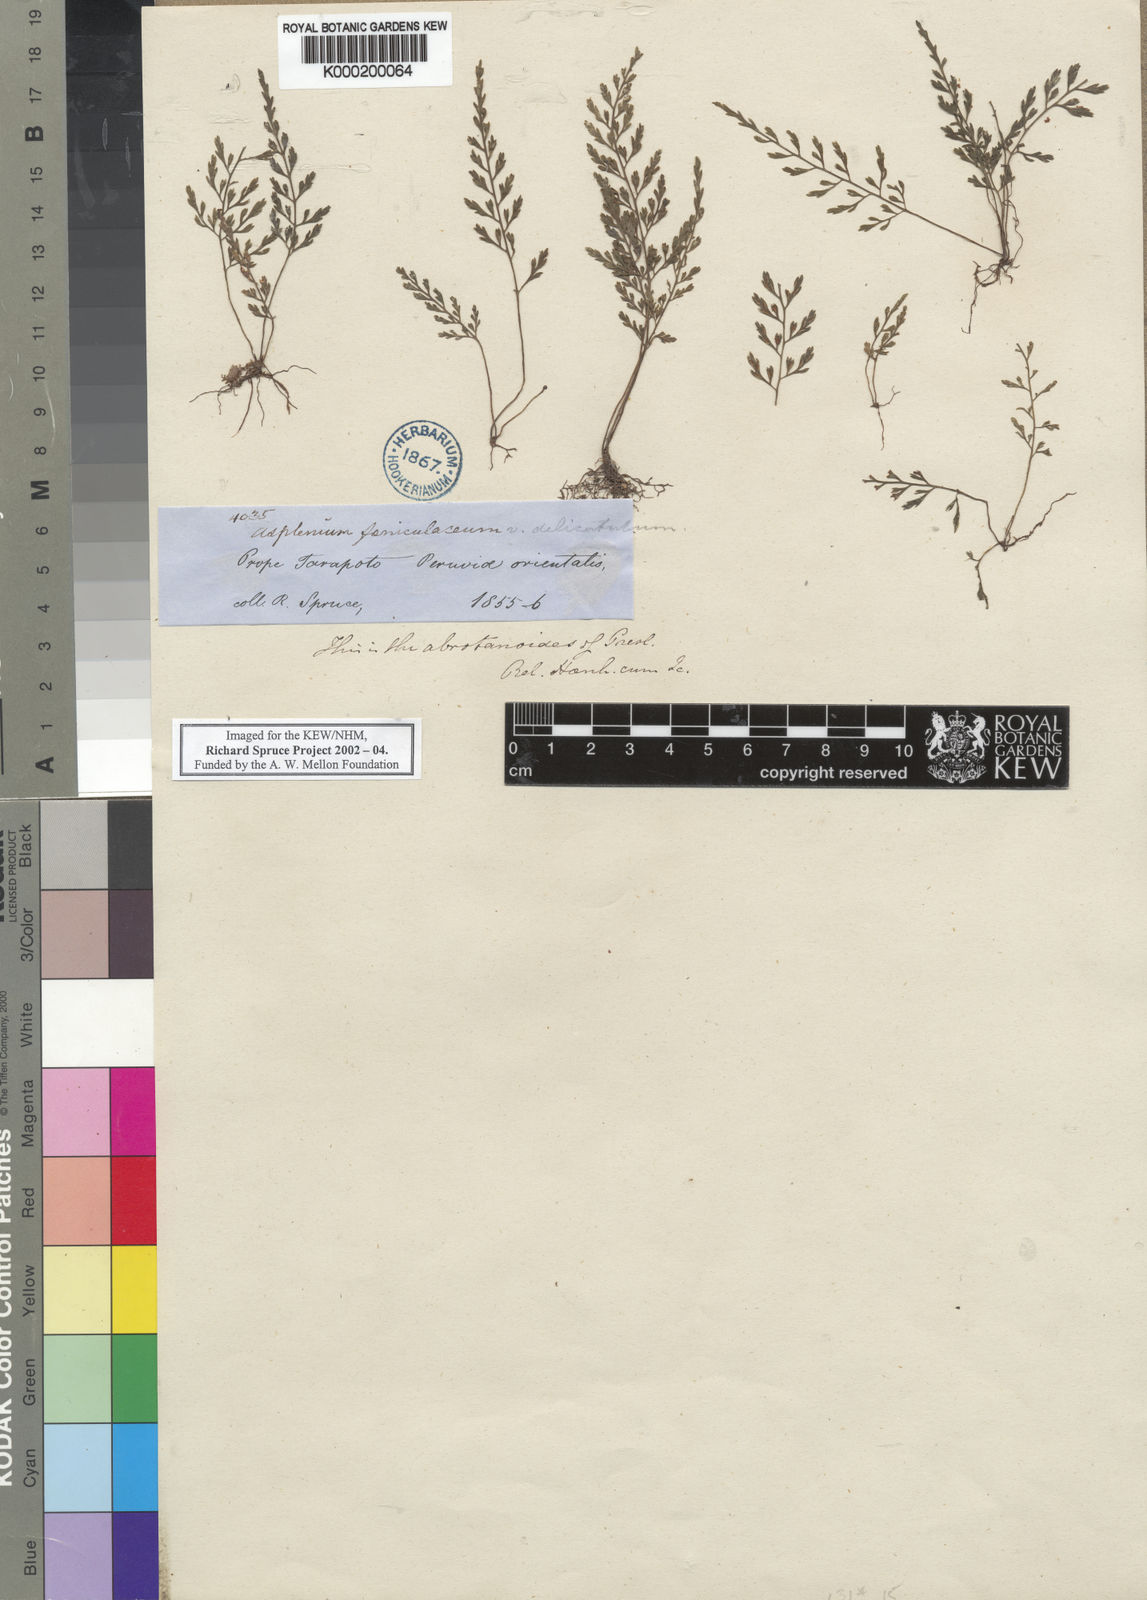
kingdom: Plantae
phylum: Tracheophyta
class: Polypodiopsida
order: Polypodiales
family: Aspleniaceae
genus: Asplenium
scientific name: Asplenium
